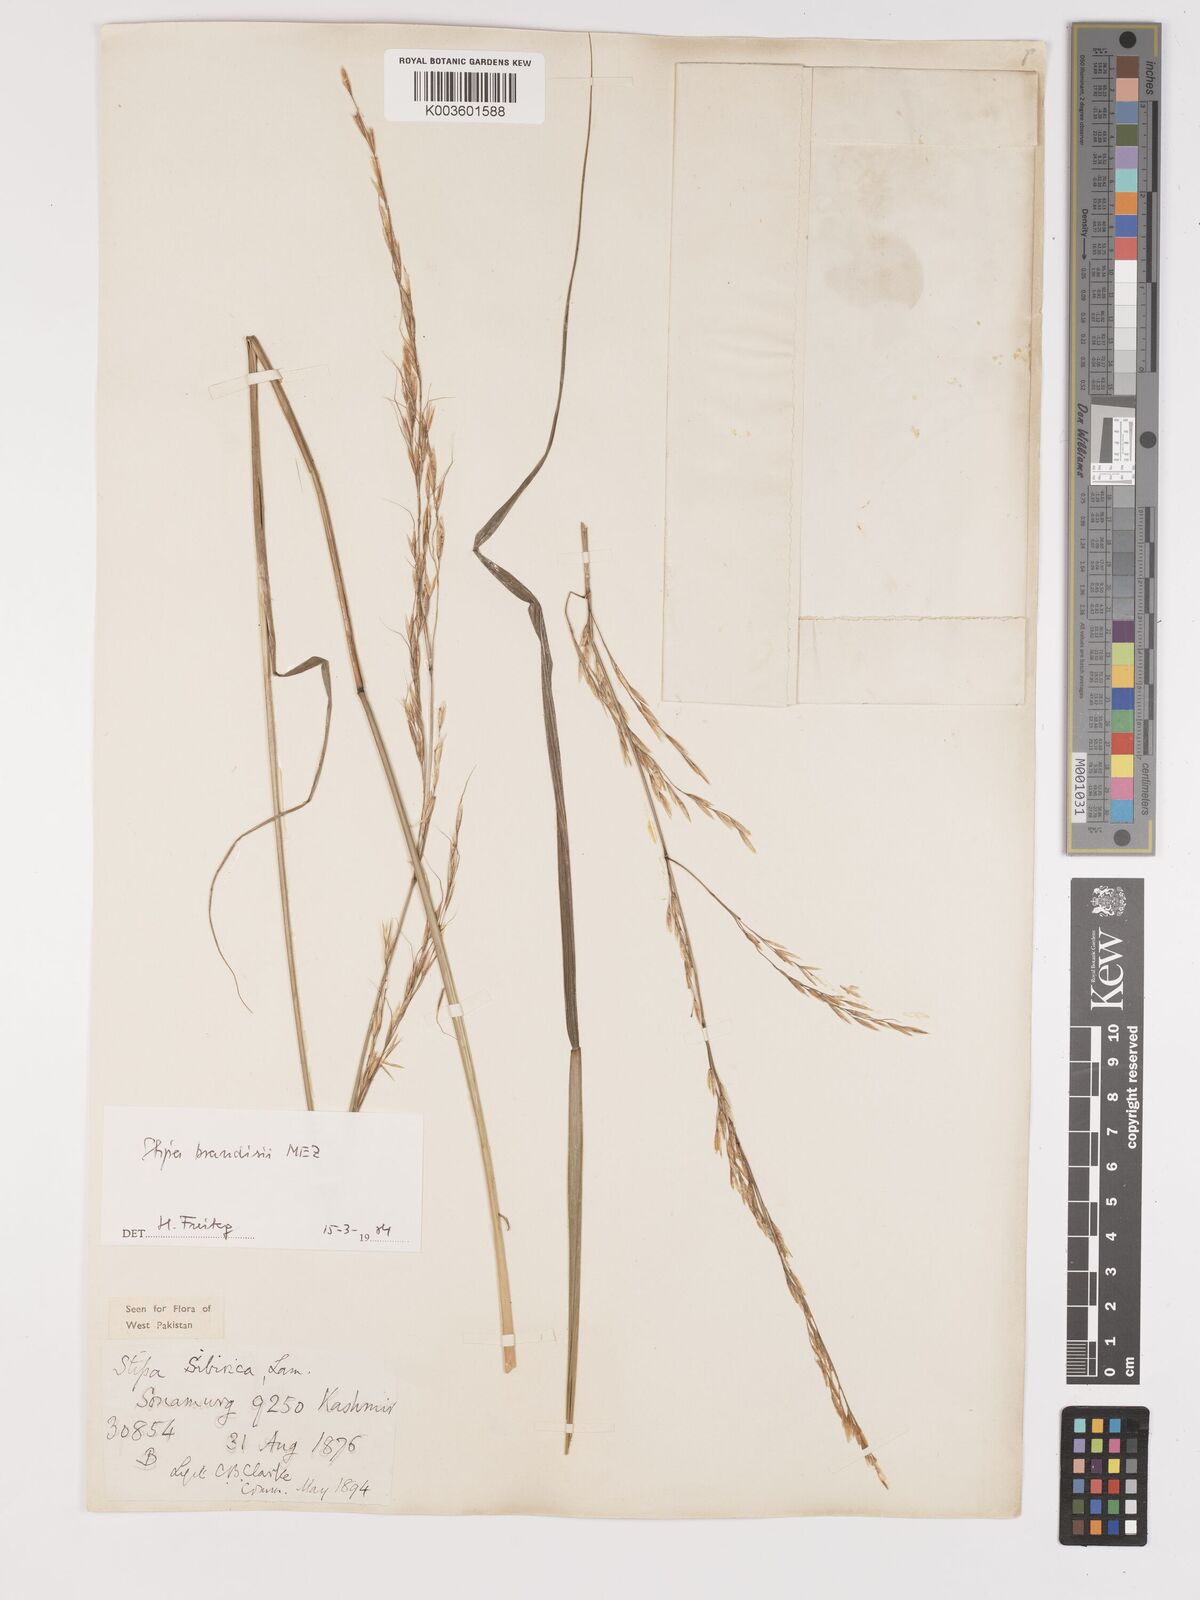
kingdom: Plantae
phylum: Tracheophyta
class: Liliopsida
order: Poales
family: Poaceae
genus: Achnatherum
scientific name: Achnatherum brandisii
